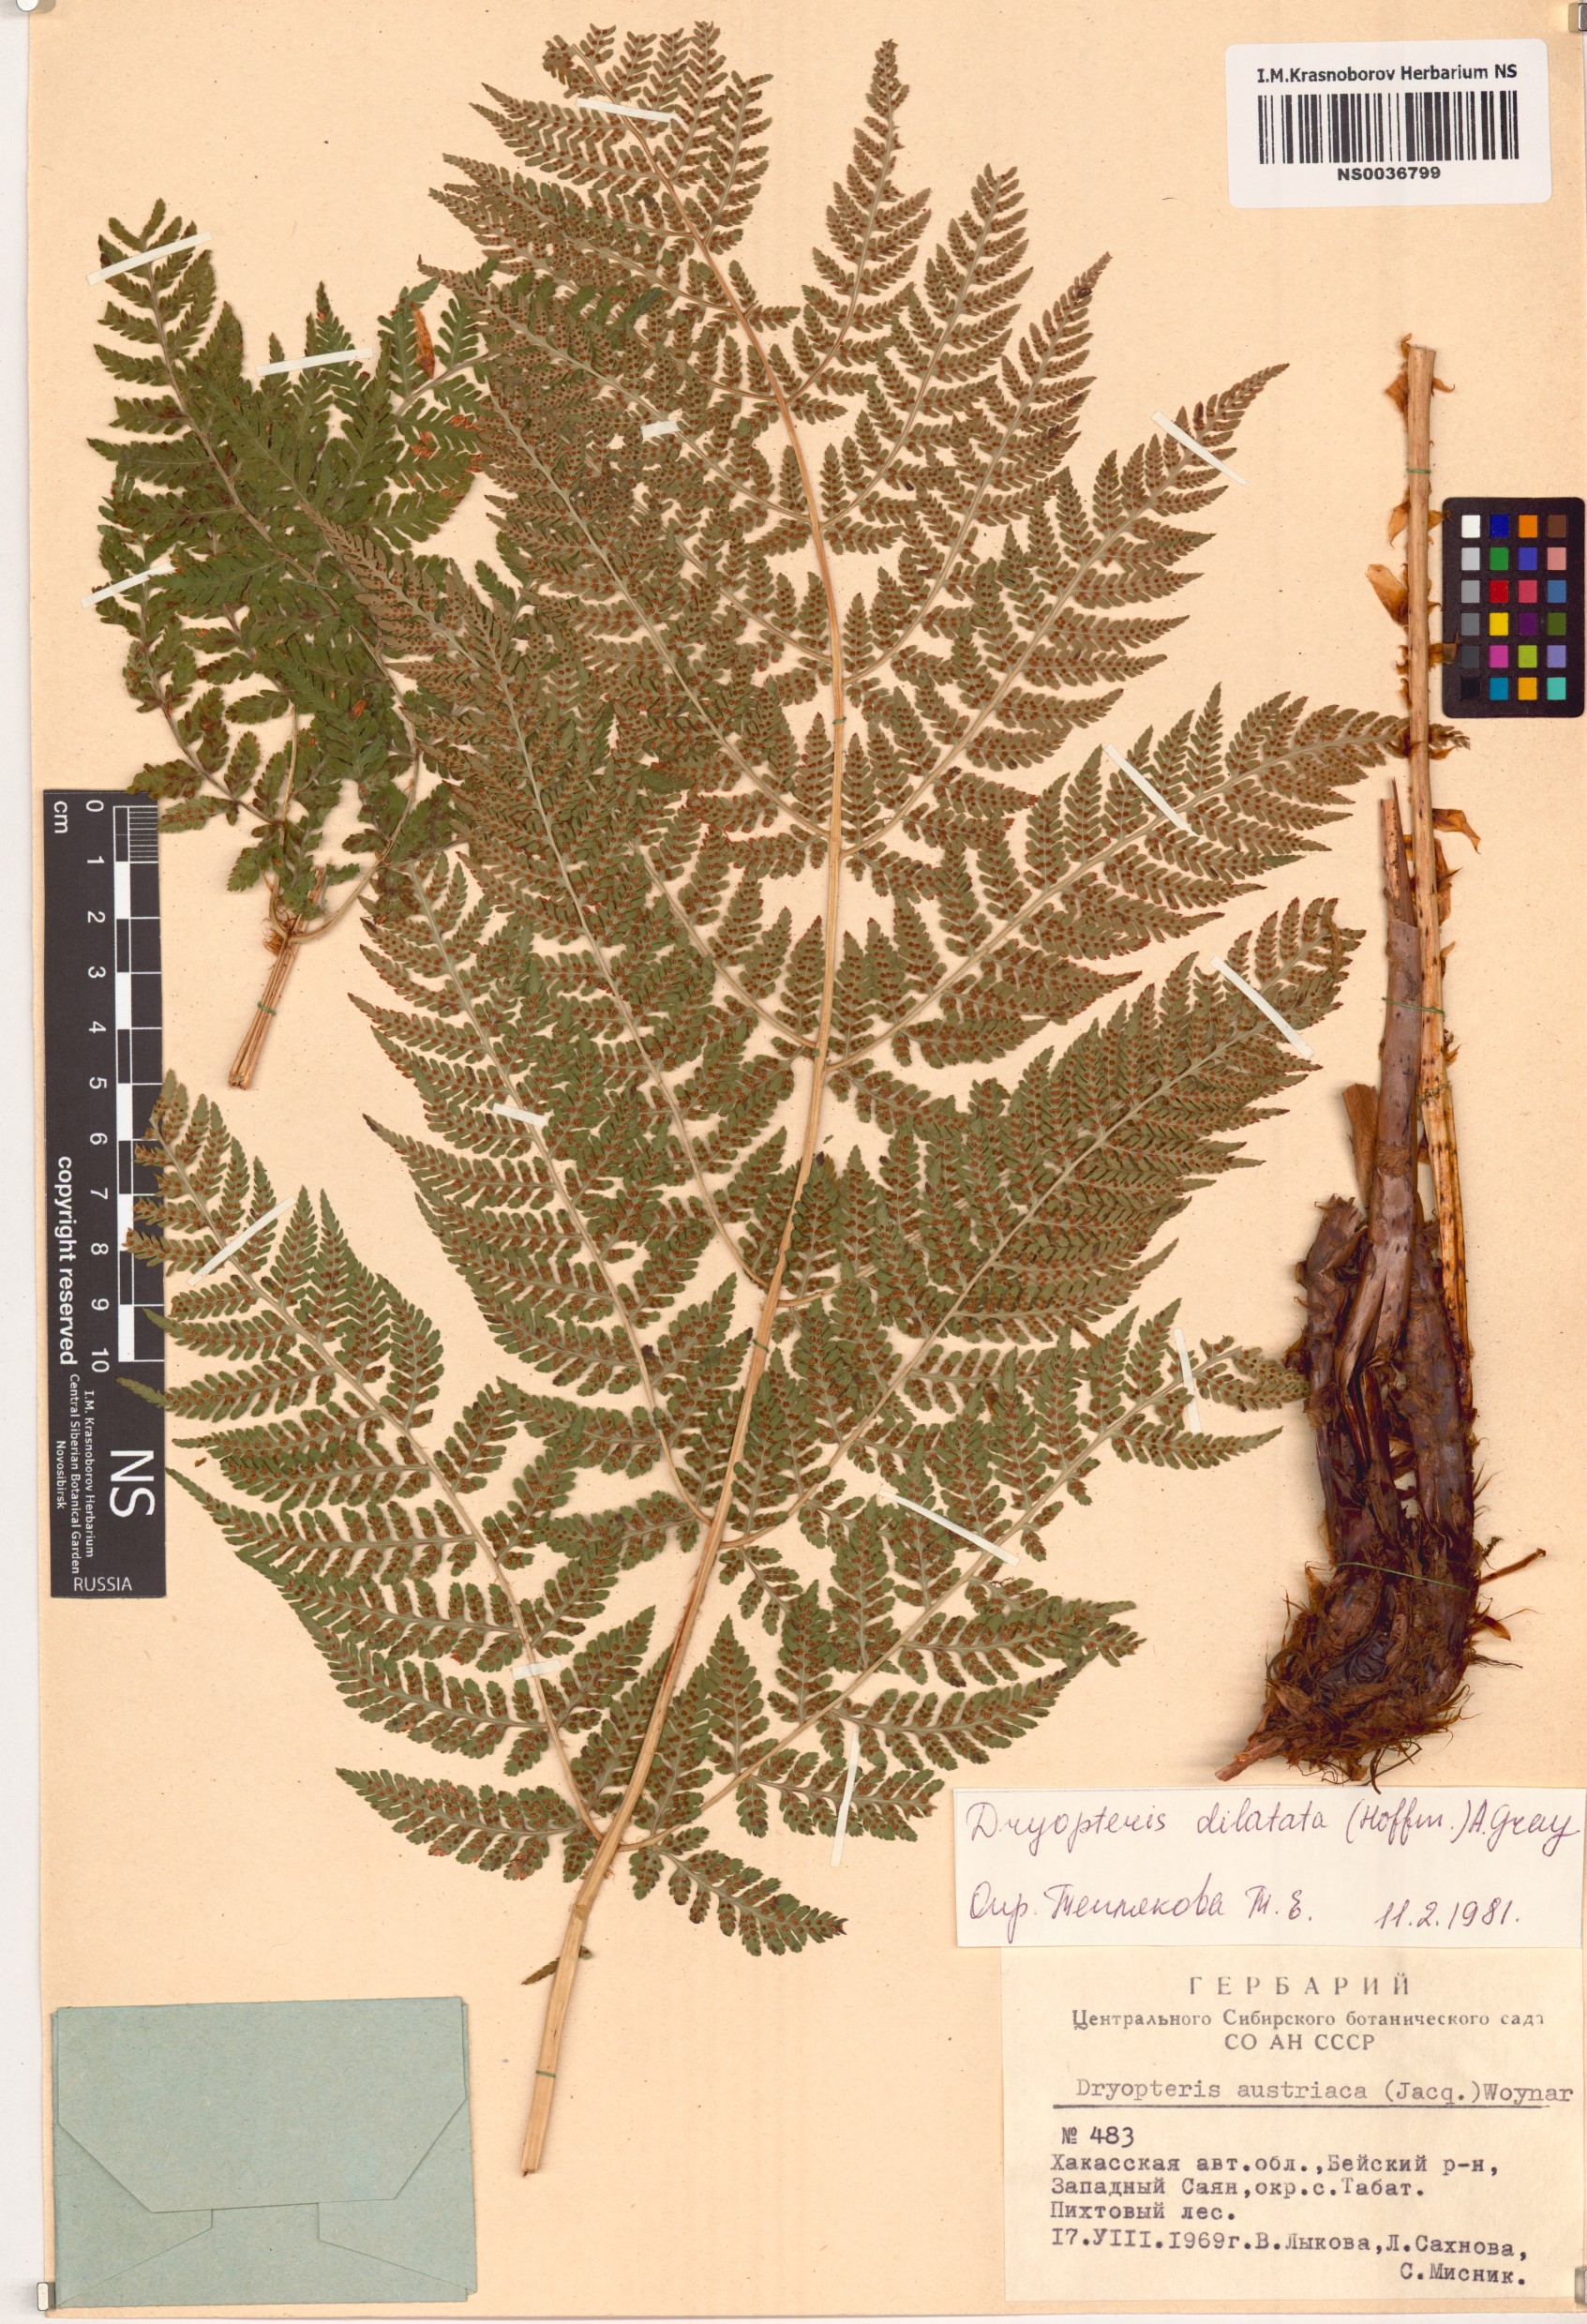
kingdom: Plantae
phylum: Tracheophyta
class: Polypodiopsida
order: Polypodiales
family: Dryopteridaceae
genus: Dryopteris
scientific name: Dryopteris dilatata
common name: Broad buckler-fern
